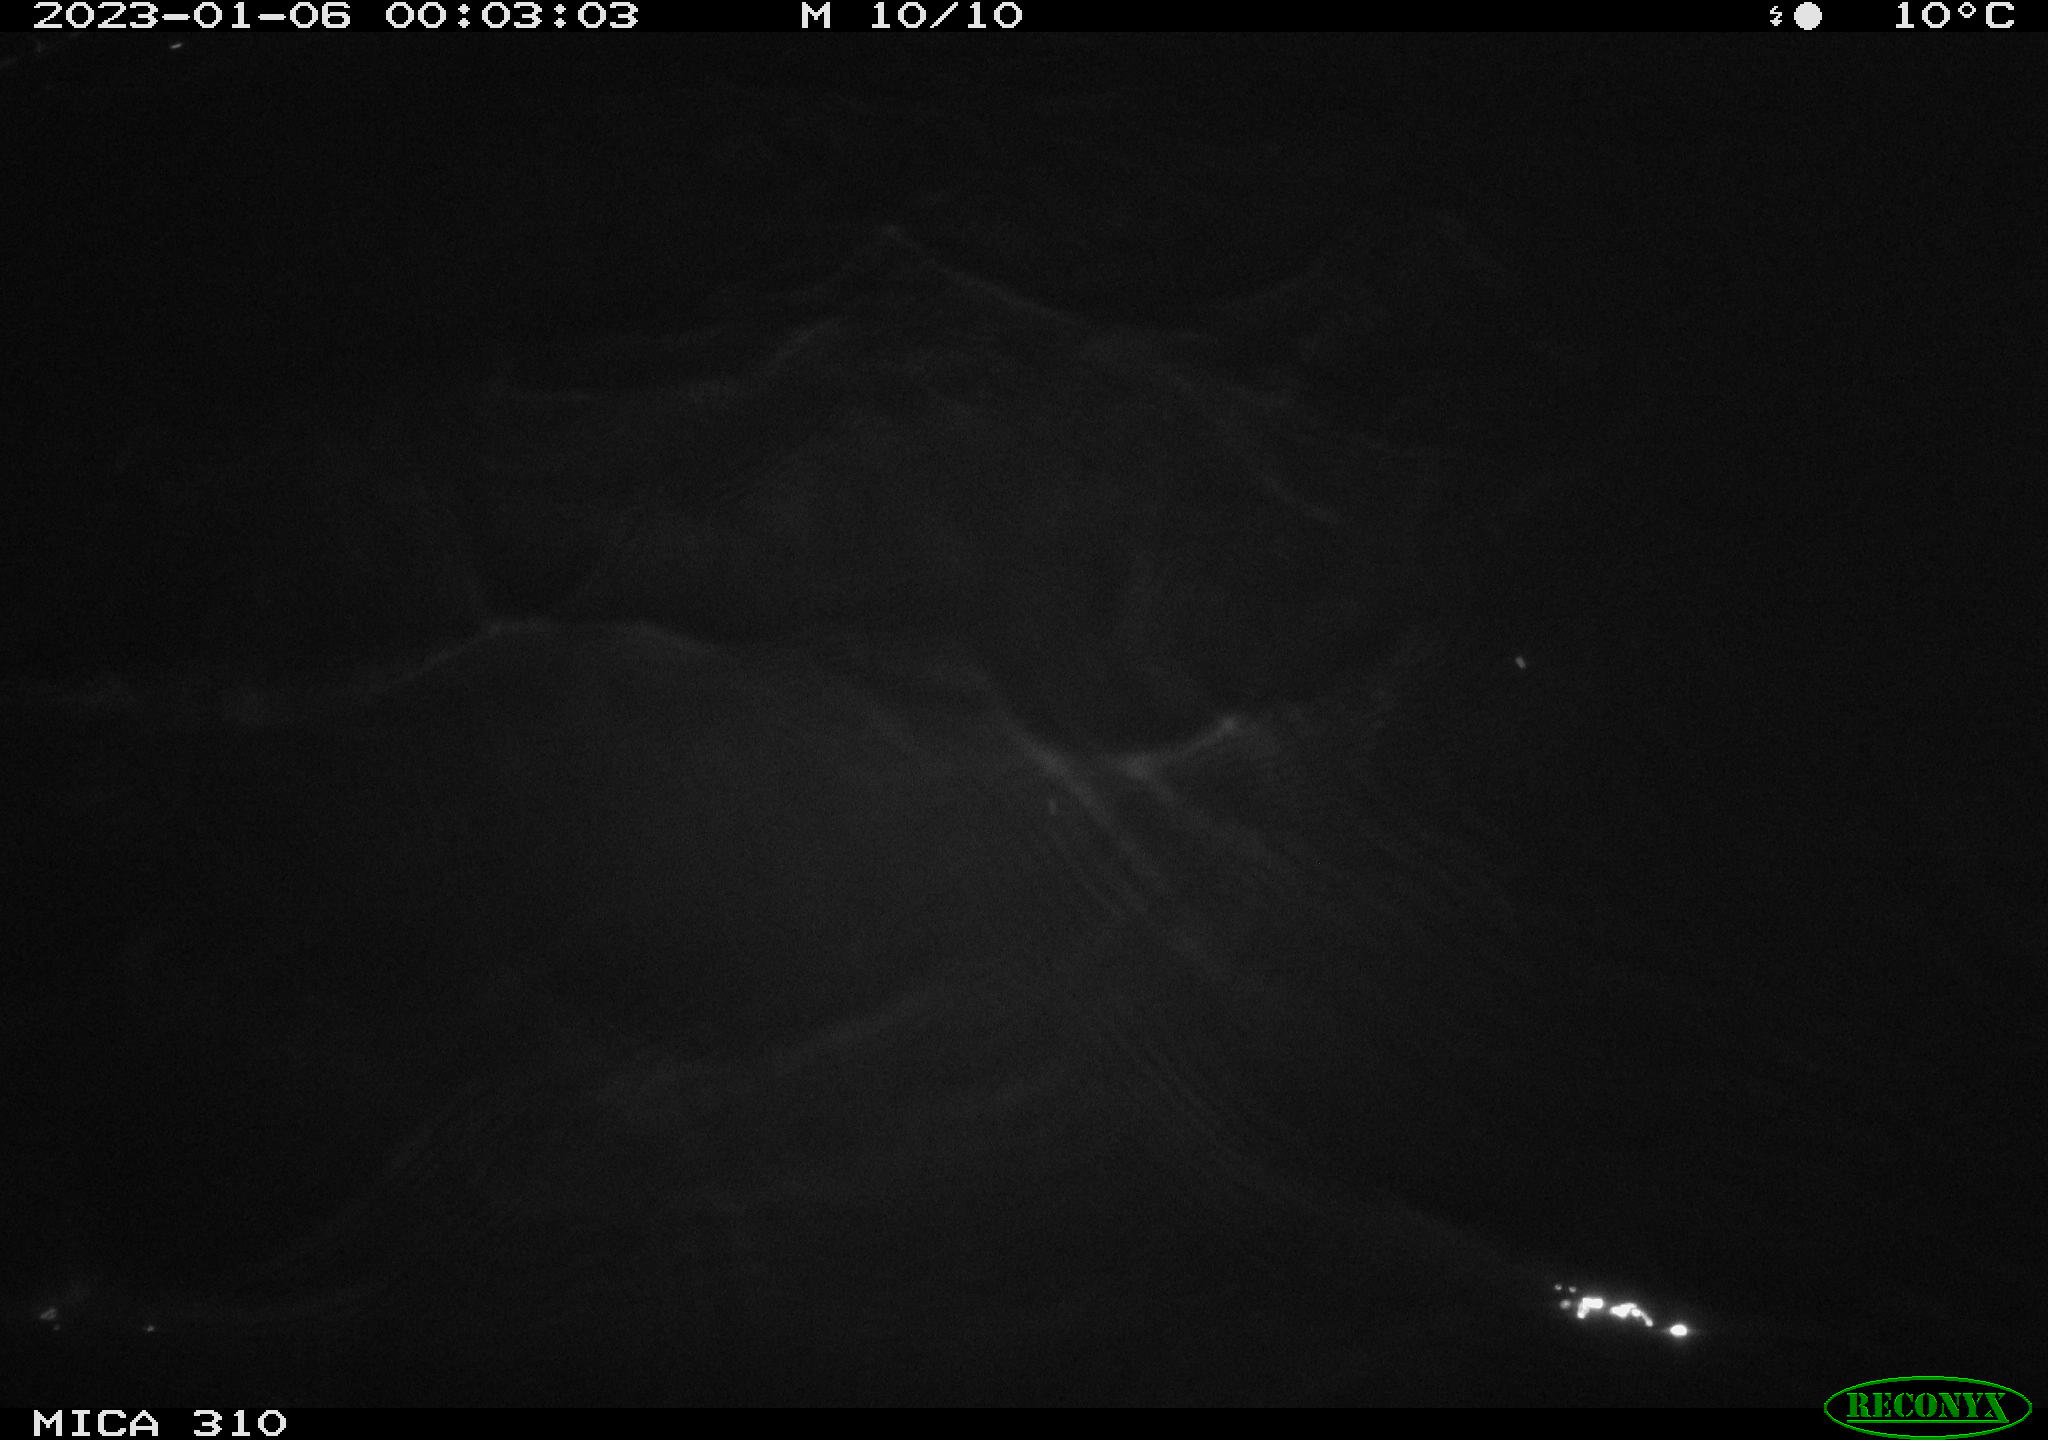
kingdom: Animalia
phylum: Chordata
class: Mammalia
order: Rodentia
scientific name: Rodentia
